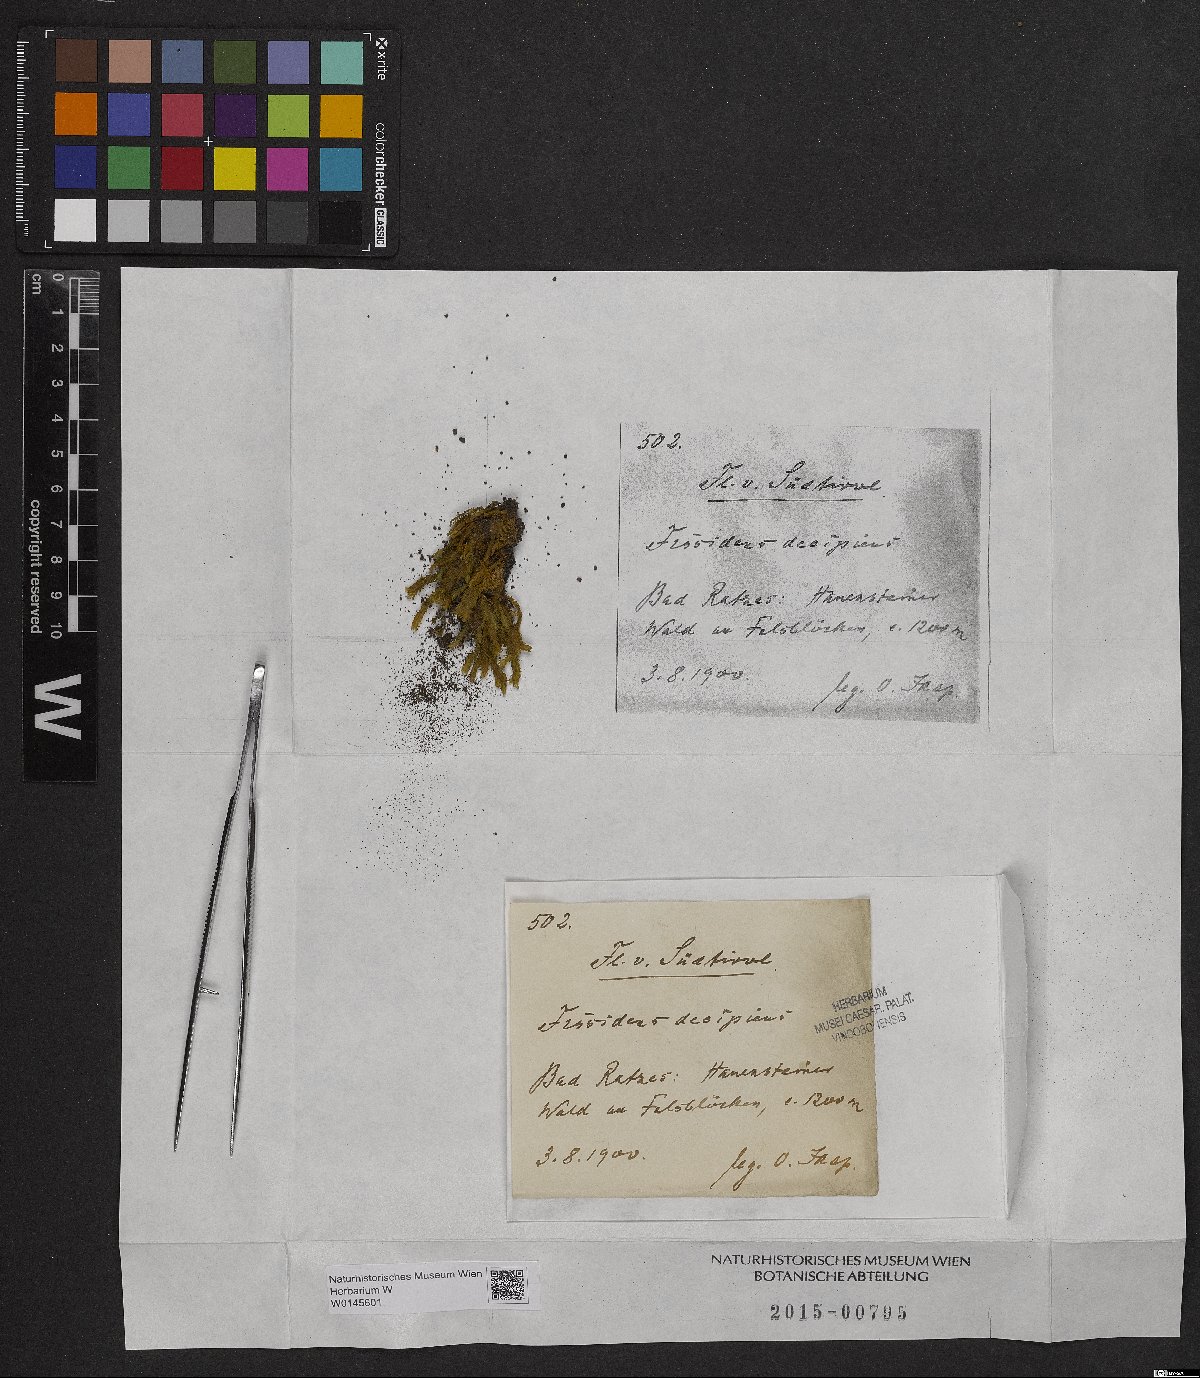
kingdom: Plantae
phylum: Bryophyta
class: Bryopsida
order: Dicranales
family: Fissidentaceae
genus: Fissidens
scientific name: Fissidens dubius
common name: Rock pocket moss
